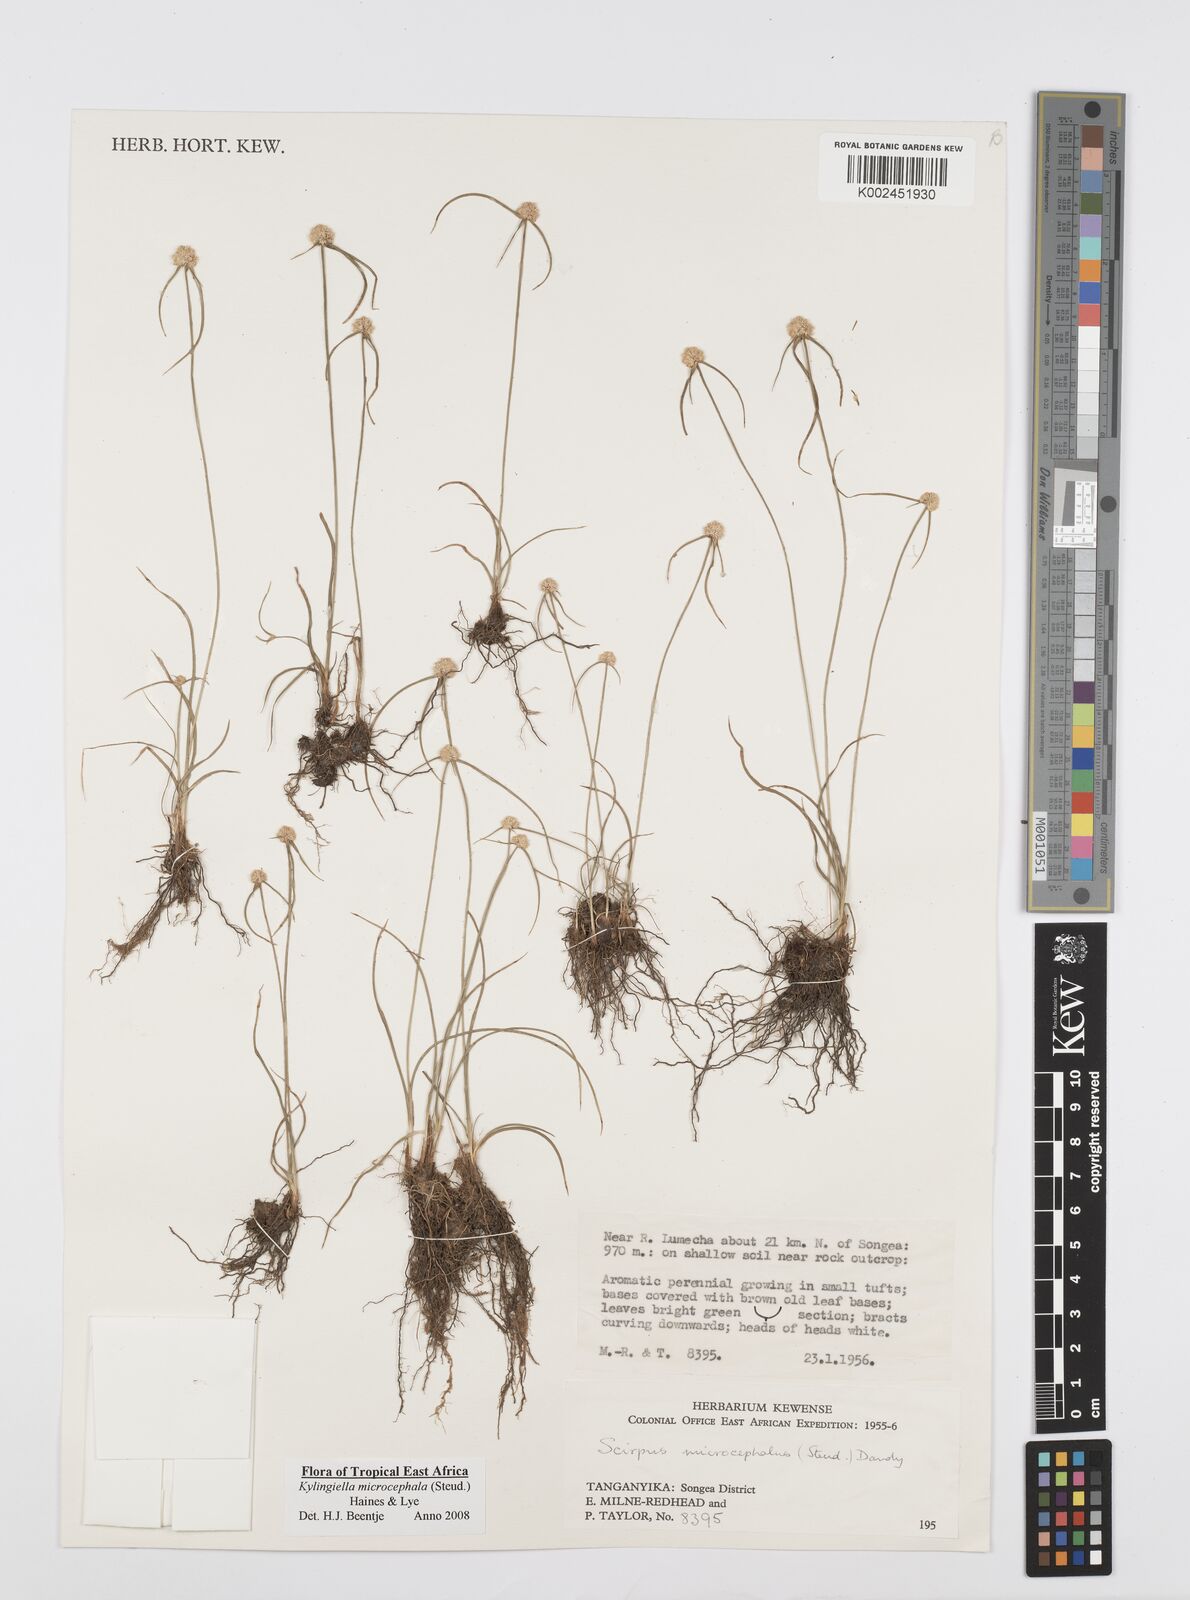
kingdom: Plantae
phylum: Tracheophyta
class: Liliopsida
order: Poales
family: Cyperaceae
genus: Cyperus
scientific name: Cyperus microcephalus
